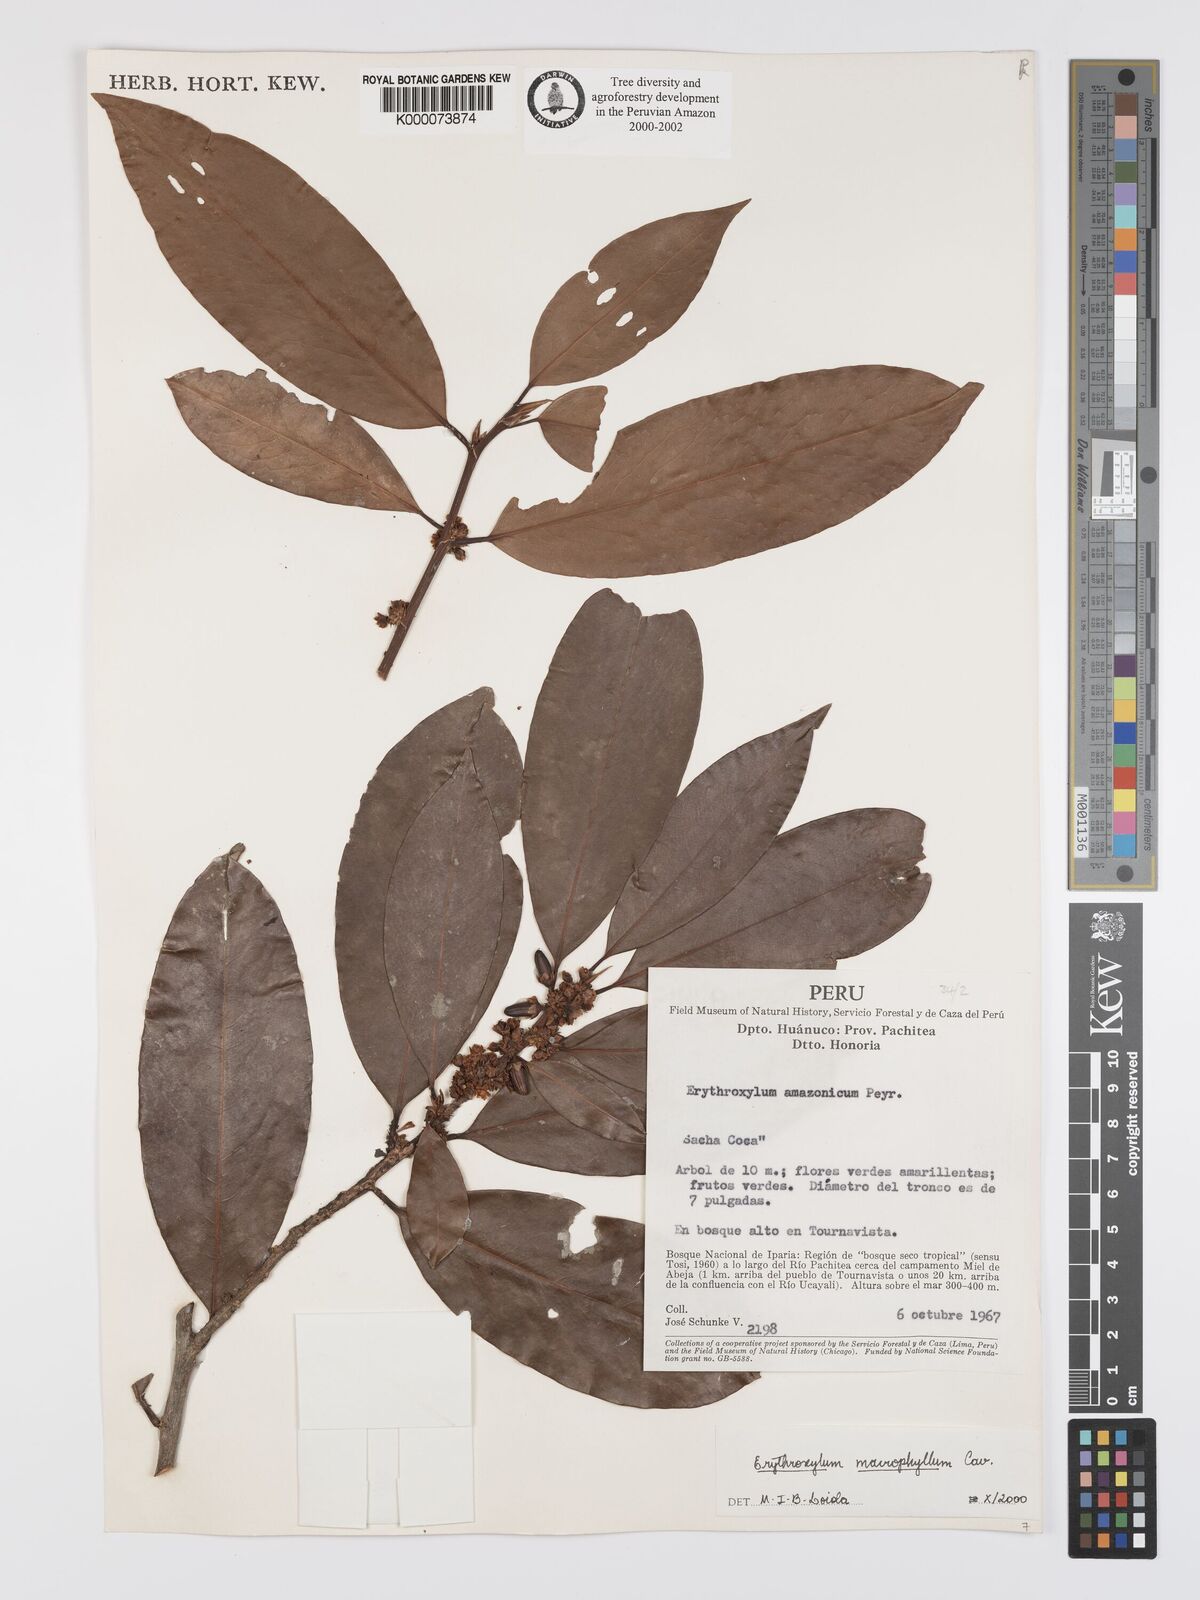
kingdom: Plantae
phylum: Tracheophyta
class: Magnoliopsida
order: Malpighiales
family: Erythroxylaceae
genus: Erythroxylum
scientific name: Erythroxylum
